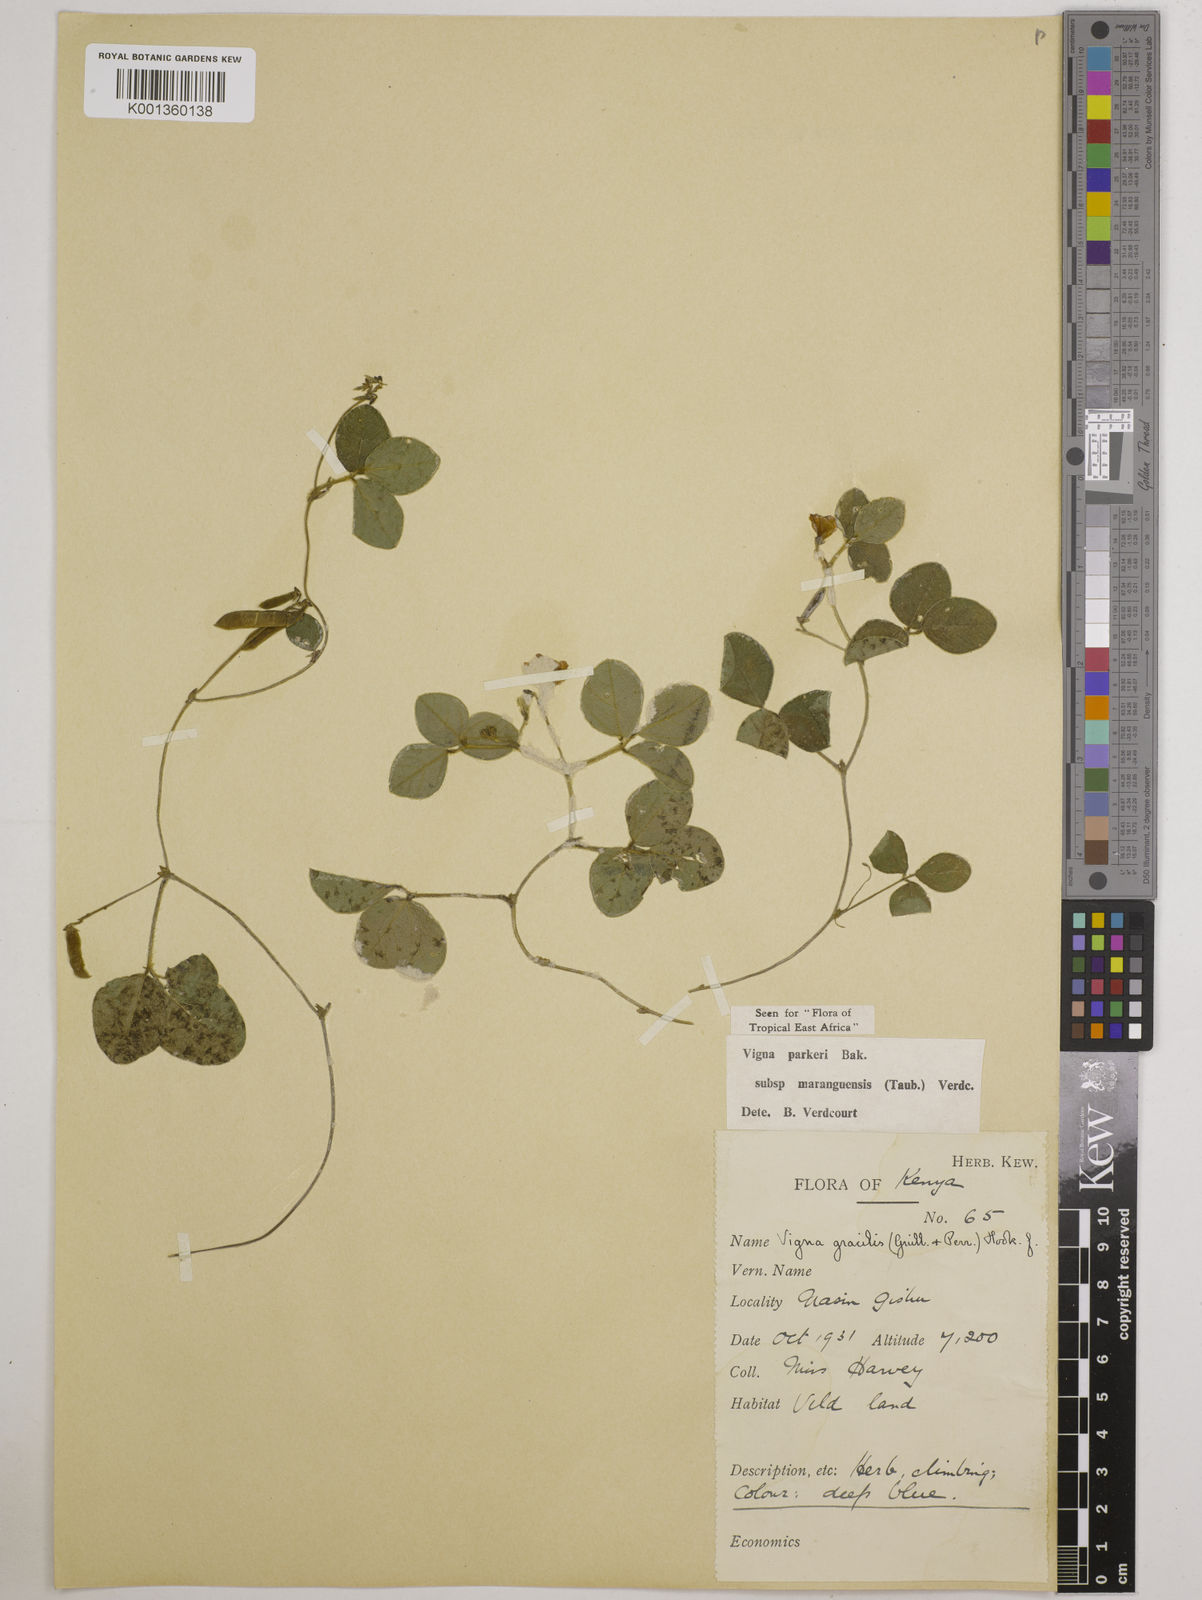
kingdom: Plantae
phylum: Tracheophyta
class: Magnoliopsida
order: Fabales
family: Fabaceae
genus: Vigna
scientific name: Vigna
